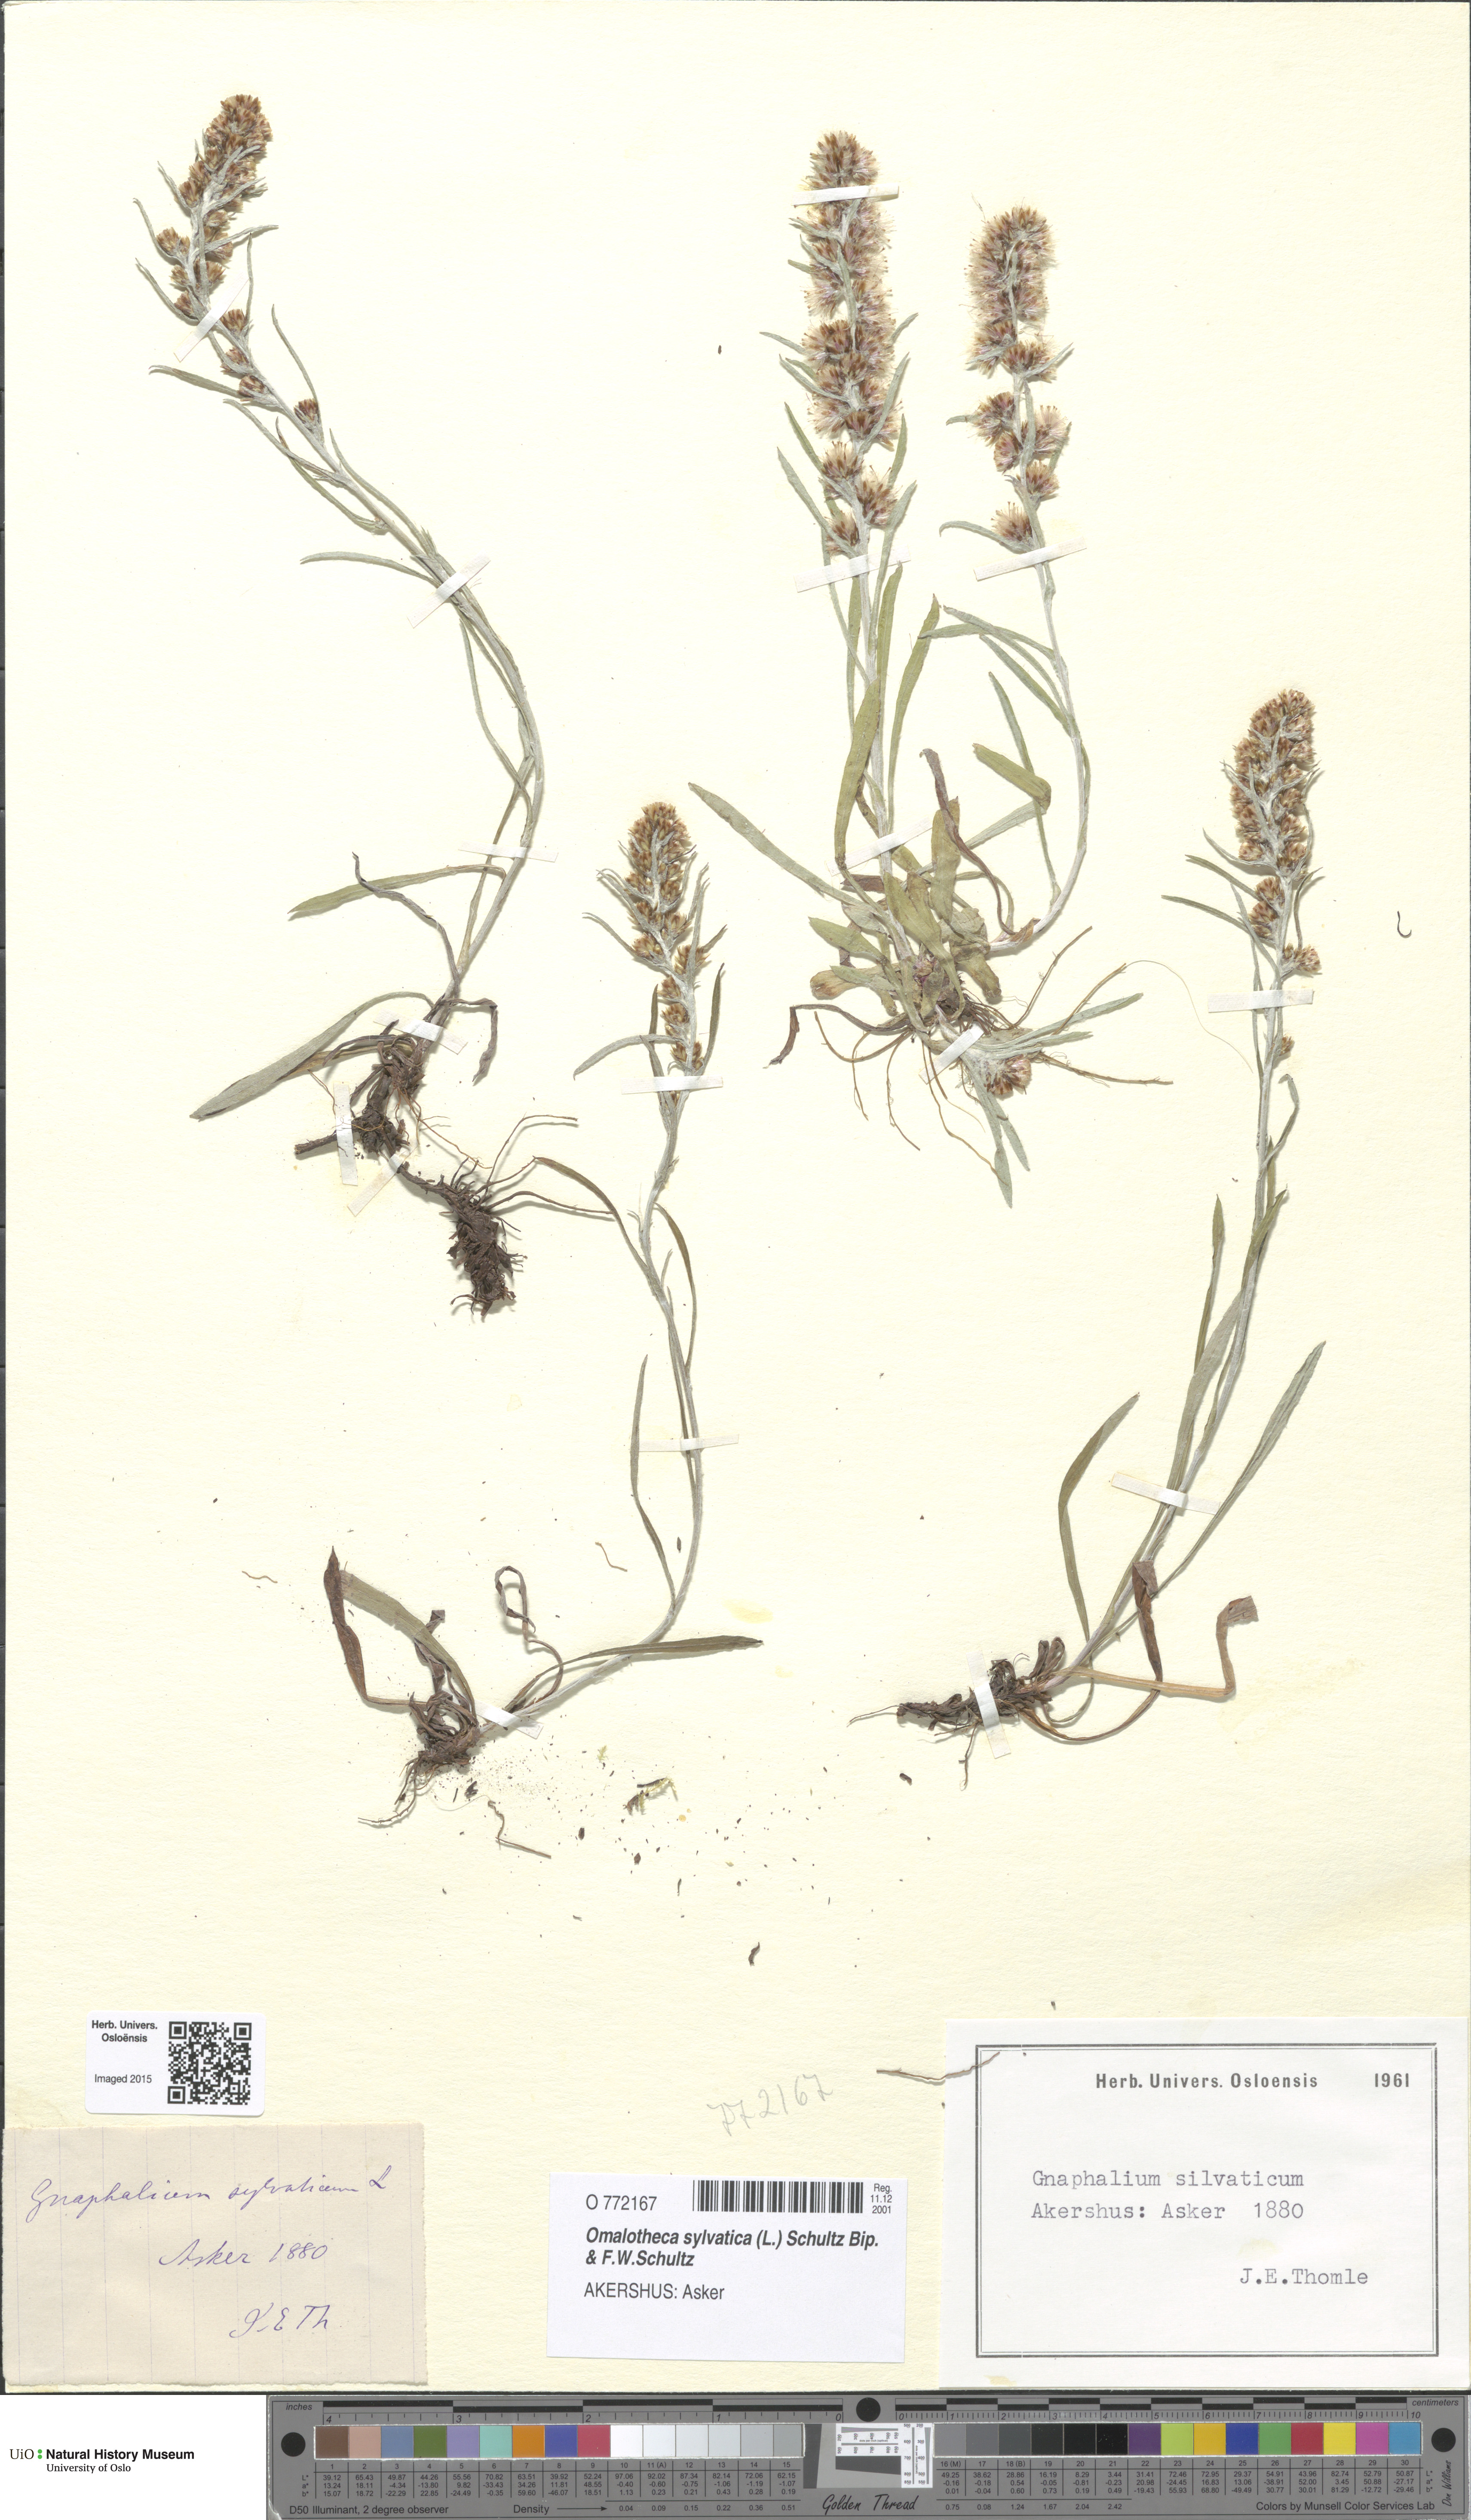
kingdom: Plantae
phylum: Tracheophyta
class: Magnoliopsida
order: Asterales
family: Asteraceae
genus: Omalotheca
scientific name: Omalotheca sylvatica
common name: Heath cudweed
